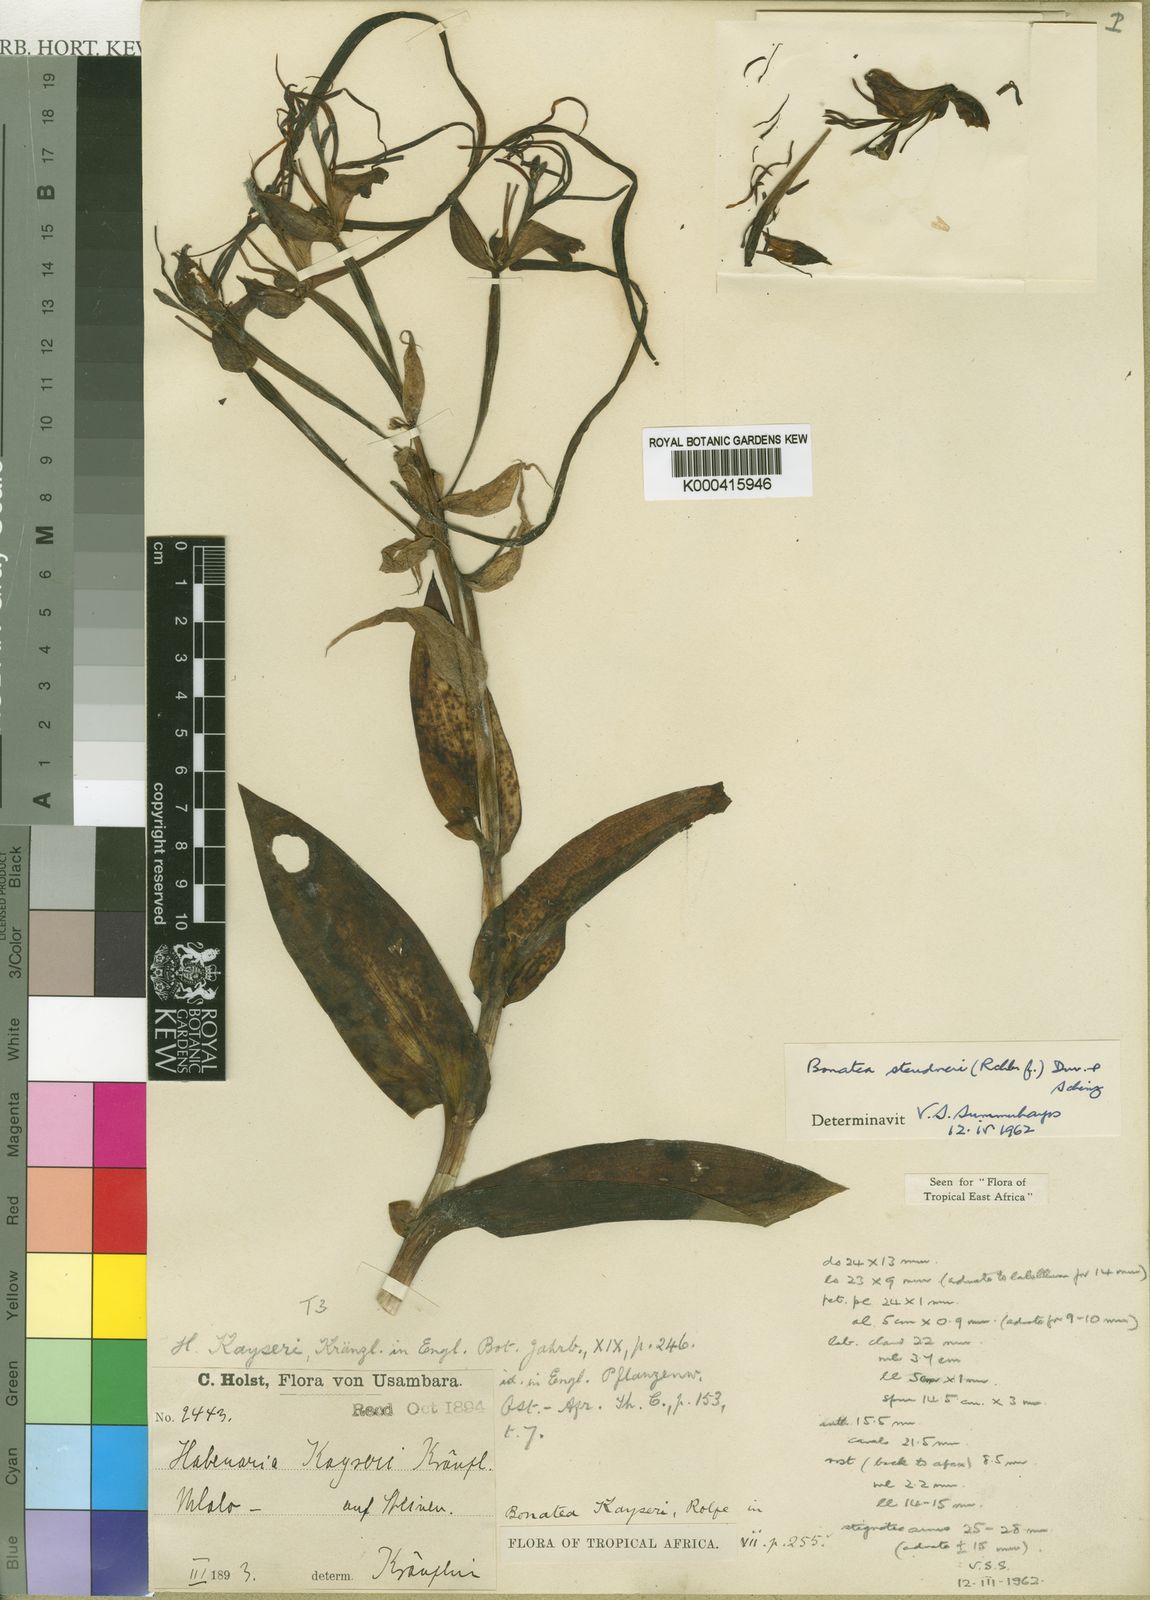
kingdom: Plantae
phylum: Tracheophyta
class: Liliopsida
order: Asparagales
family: Orchidaceae
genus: Bonatea
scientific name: Bonatea steudneri
